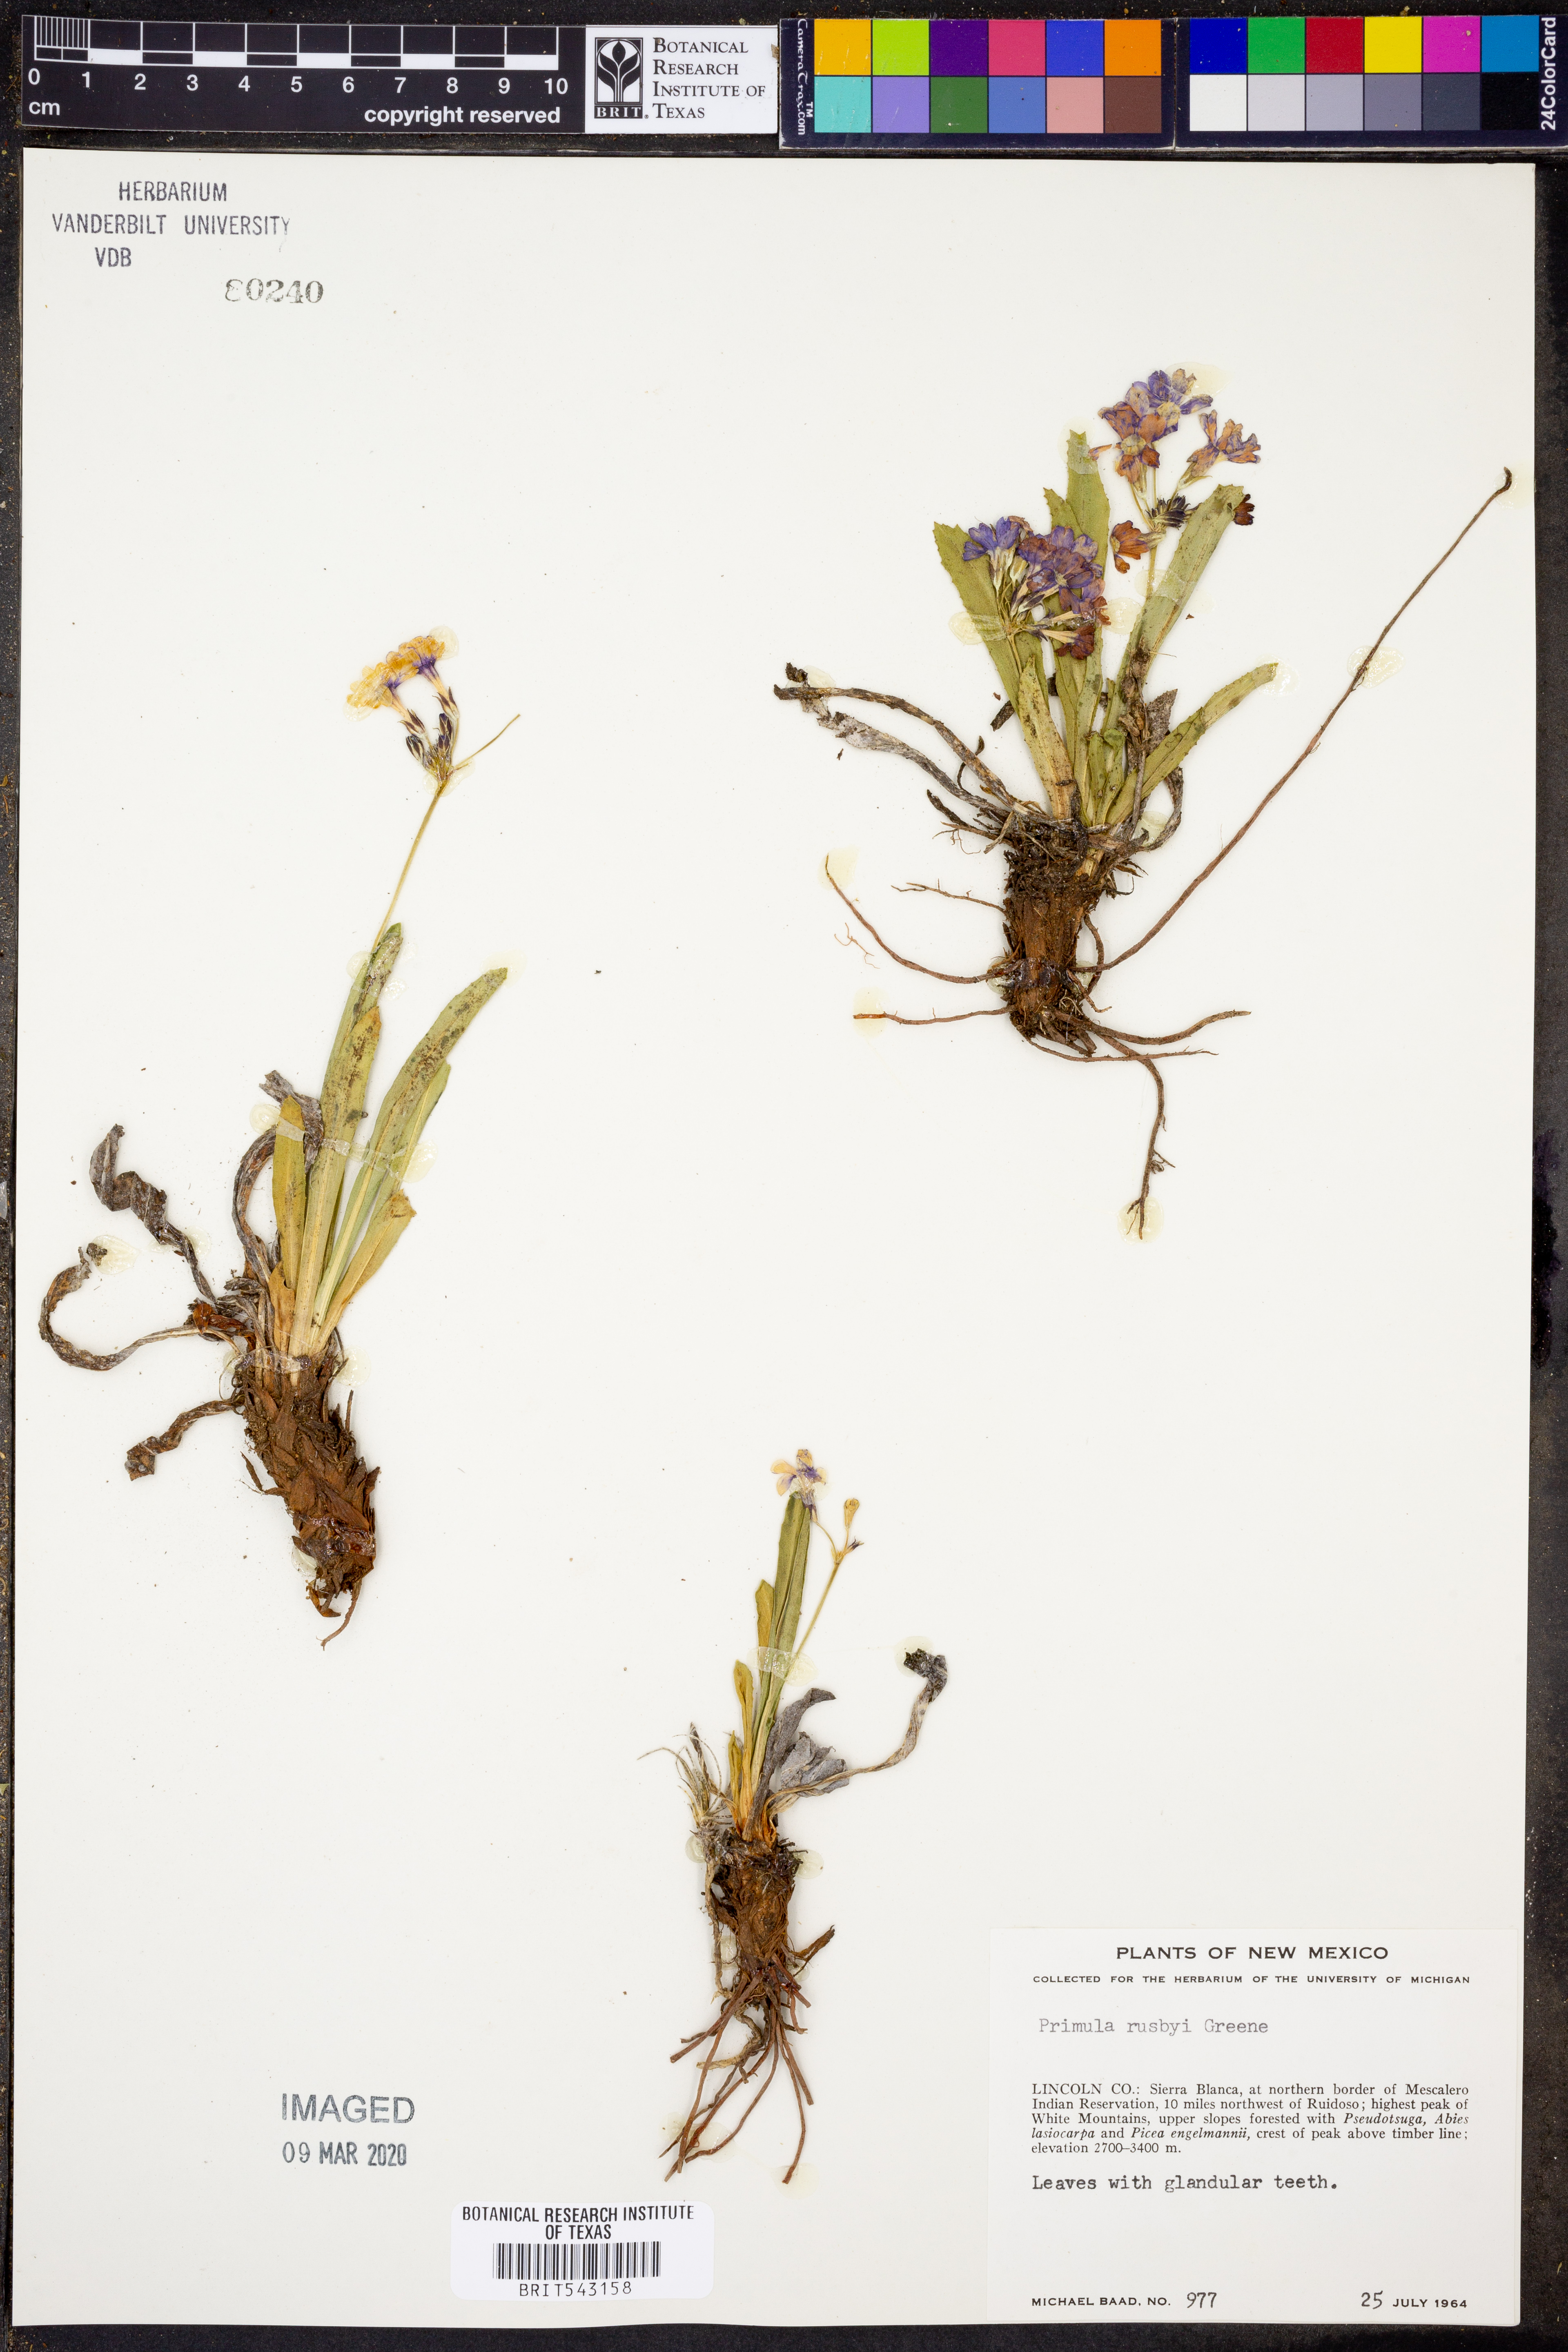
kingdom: Plantae
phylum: Tracheophyta
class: Magnoliopsida
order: Ericales
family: Primulaceae
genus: Primula
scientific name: Primula rusbyi
